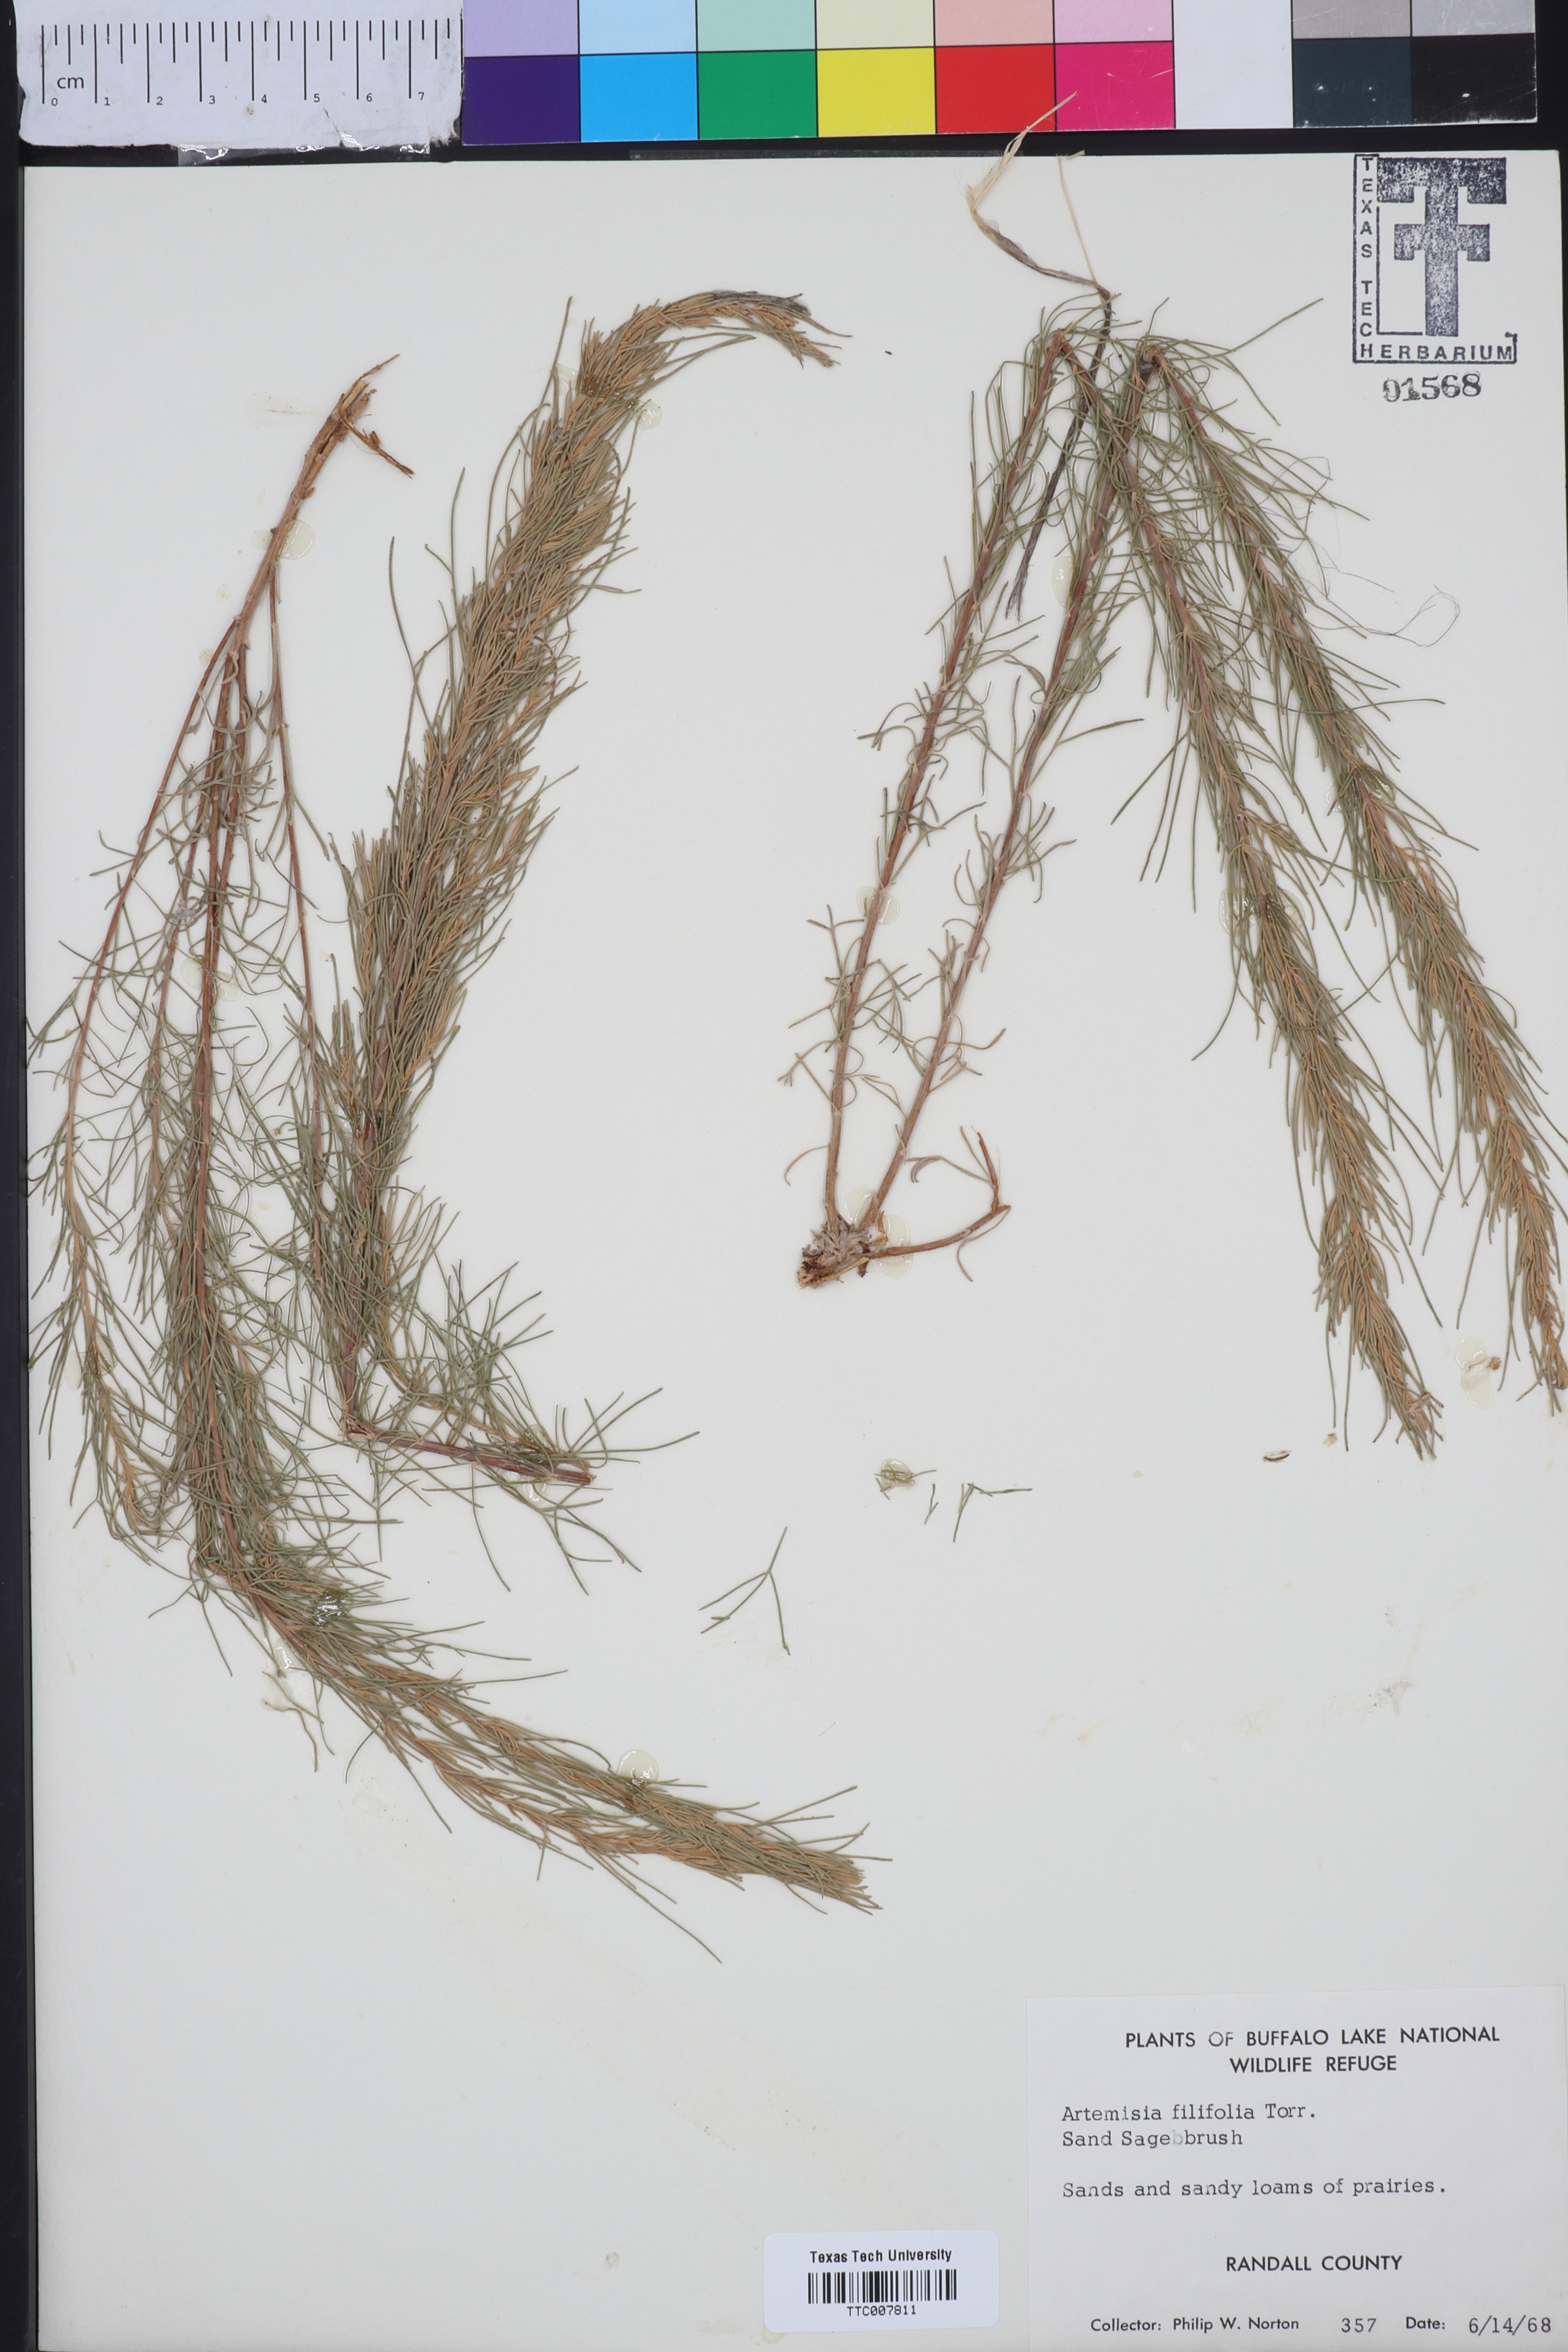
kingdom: Plantae
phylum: Tracheophyta
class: Magnoliopsida
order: Asterales
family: Asteraceae
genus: Artemisia
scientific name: Artemisia filifolia
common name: Sand-sage
